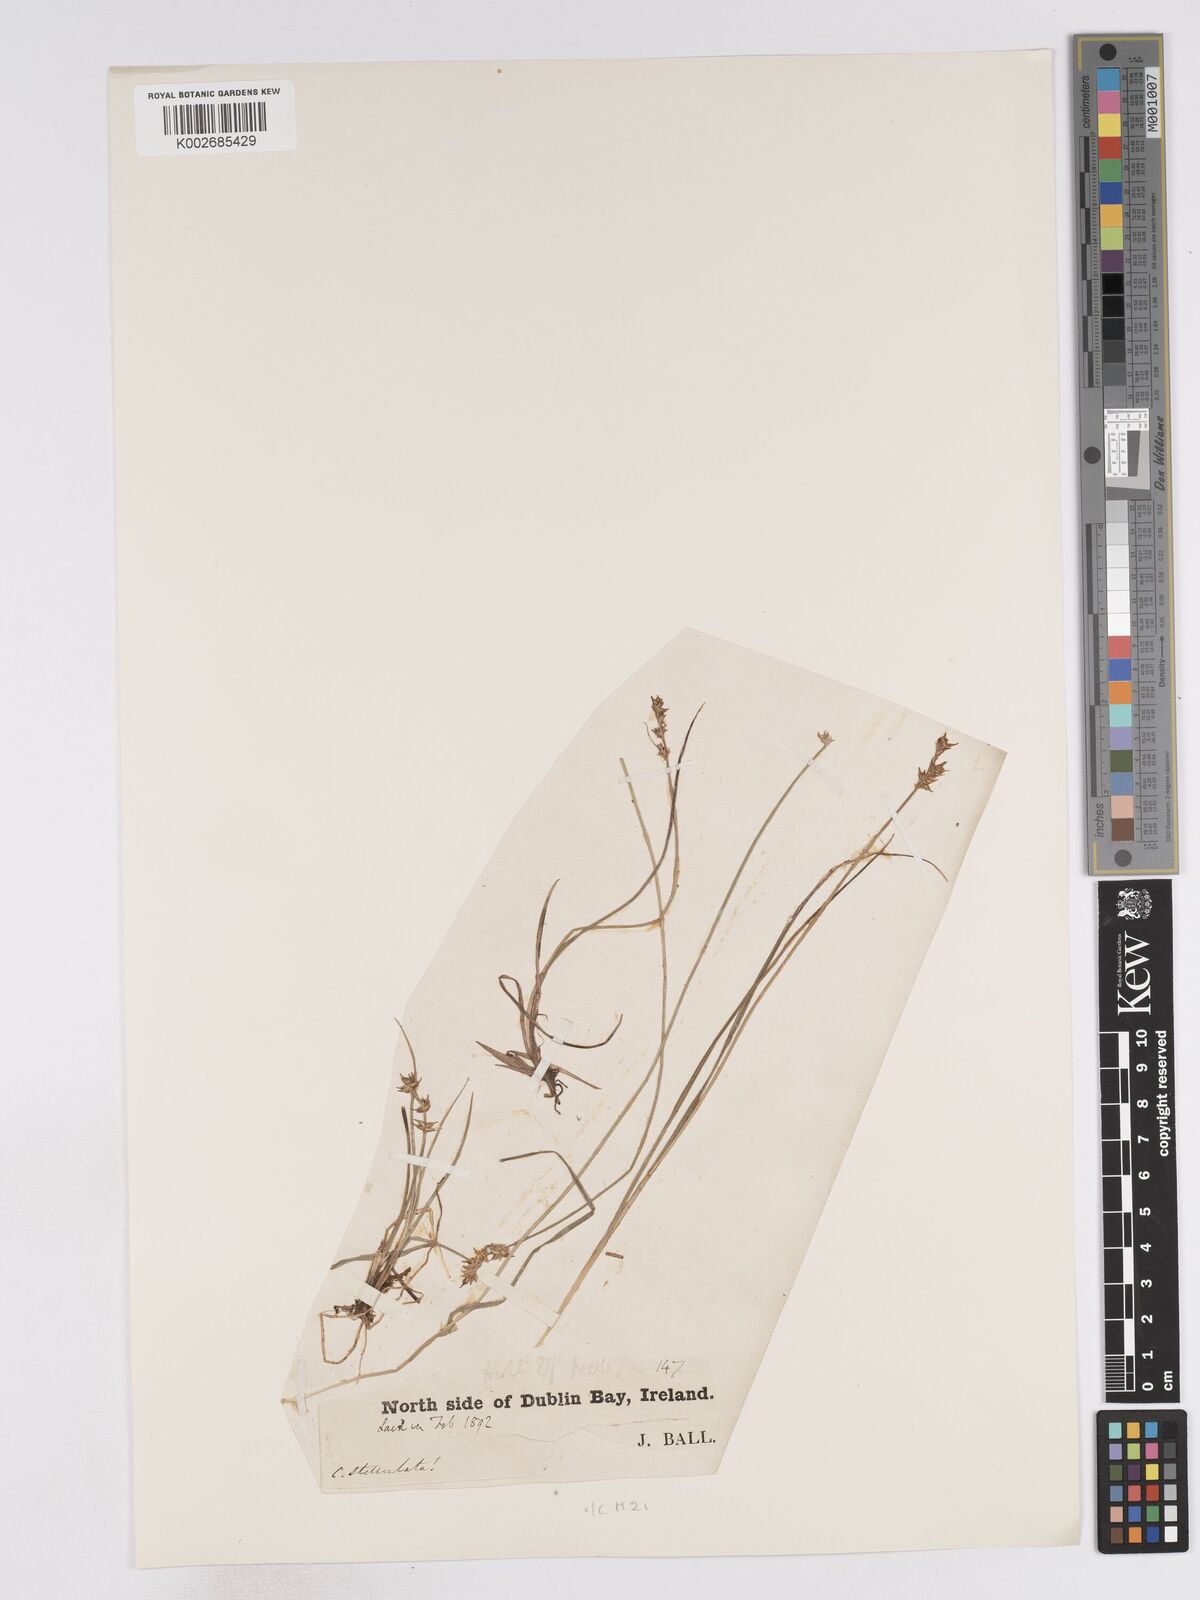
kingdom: Plantae
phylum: Tracheophyta
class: Liliopsida
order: Poales
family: Cyperaceae
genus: Carex
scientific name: Carex echinata
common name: Star sedge
